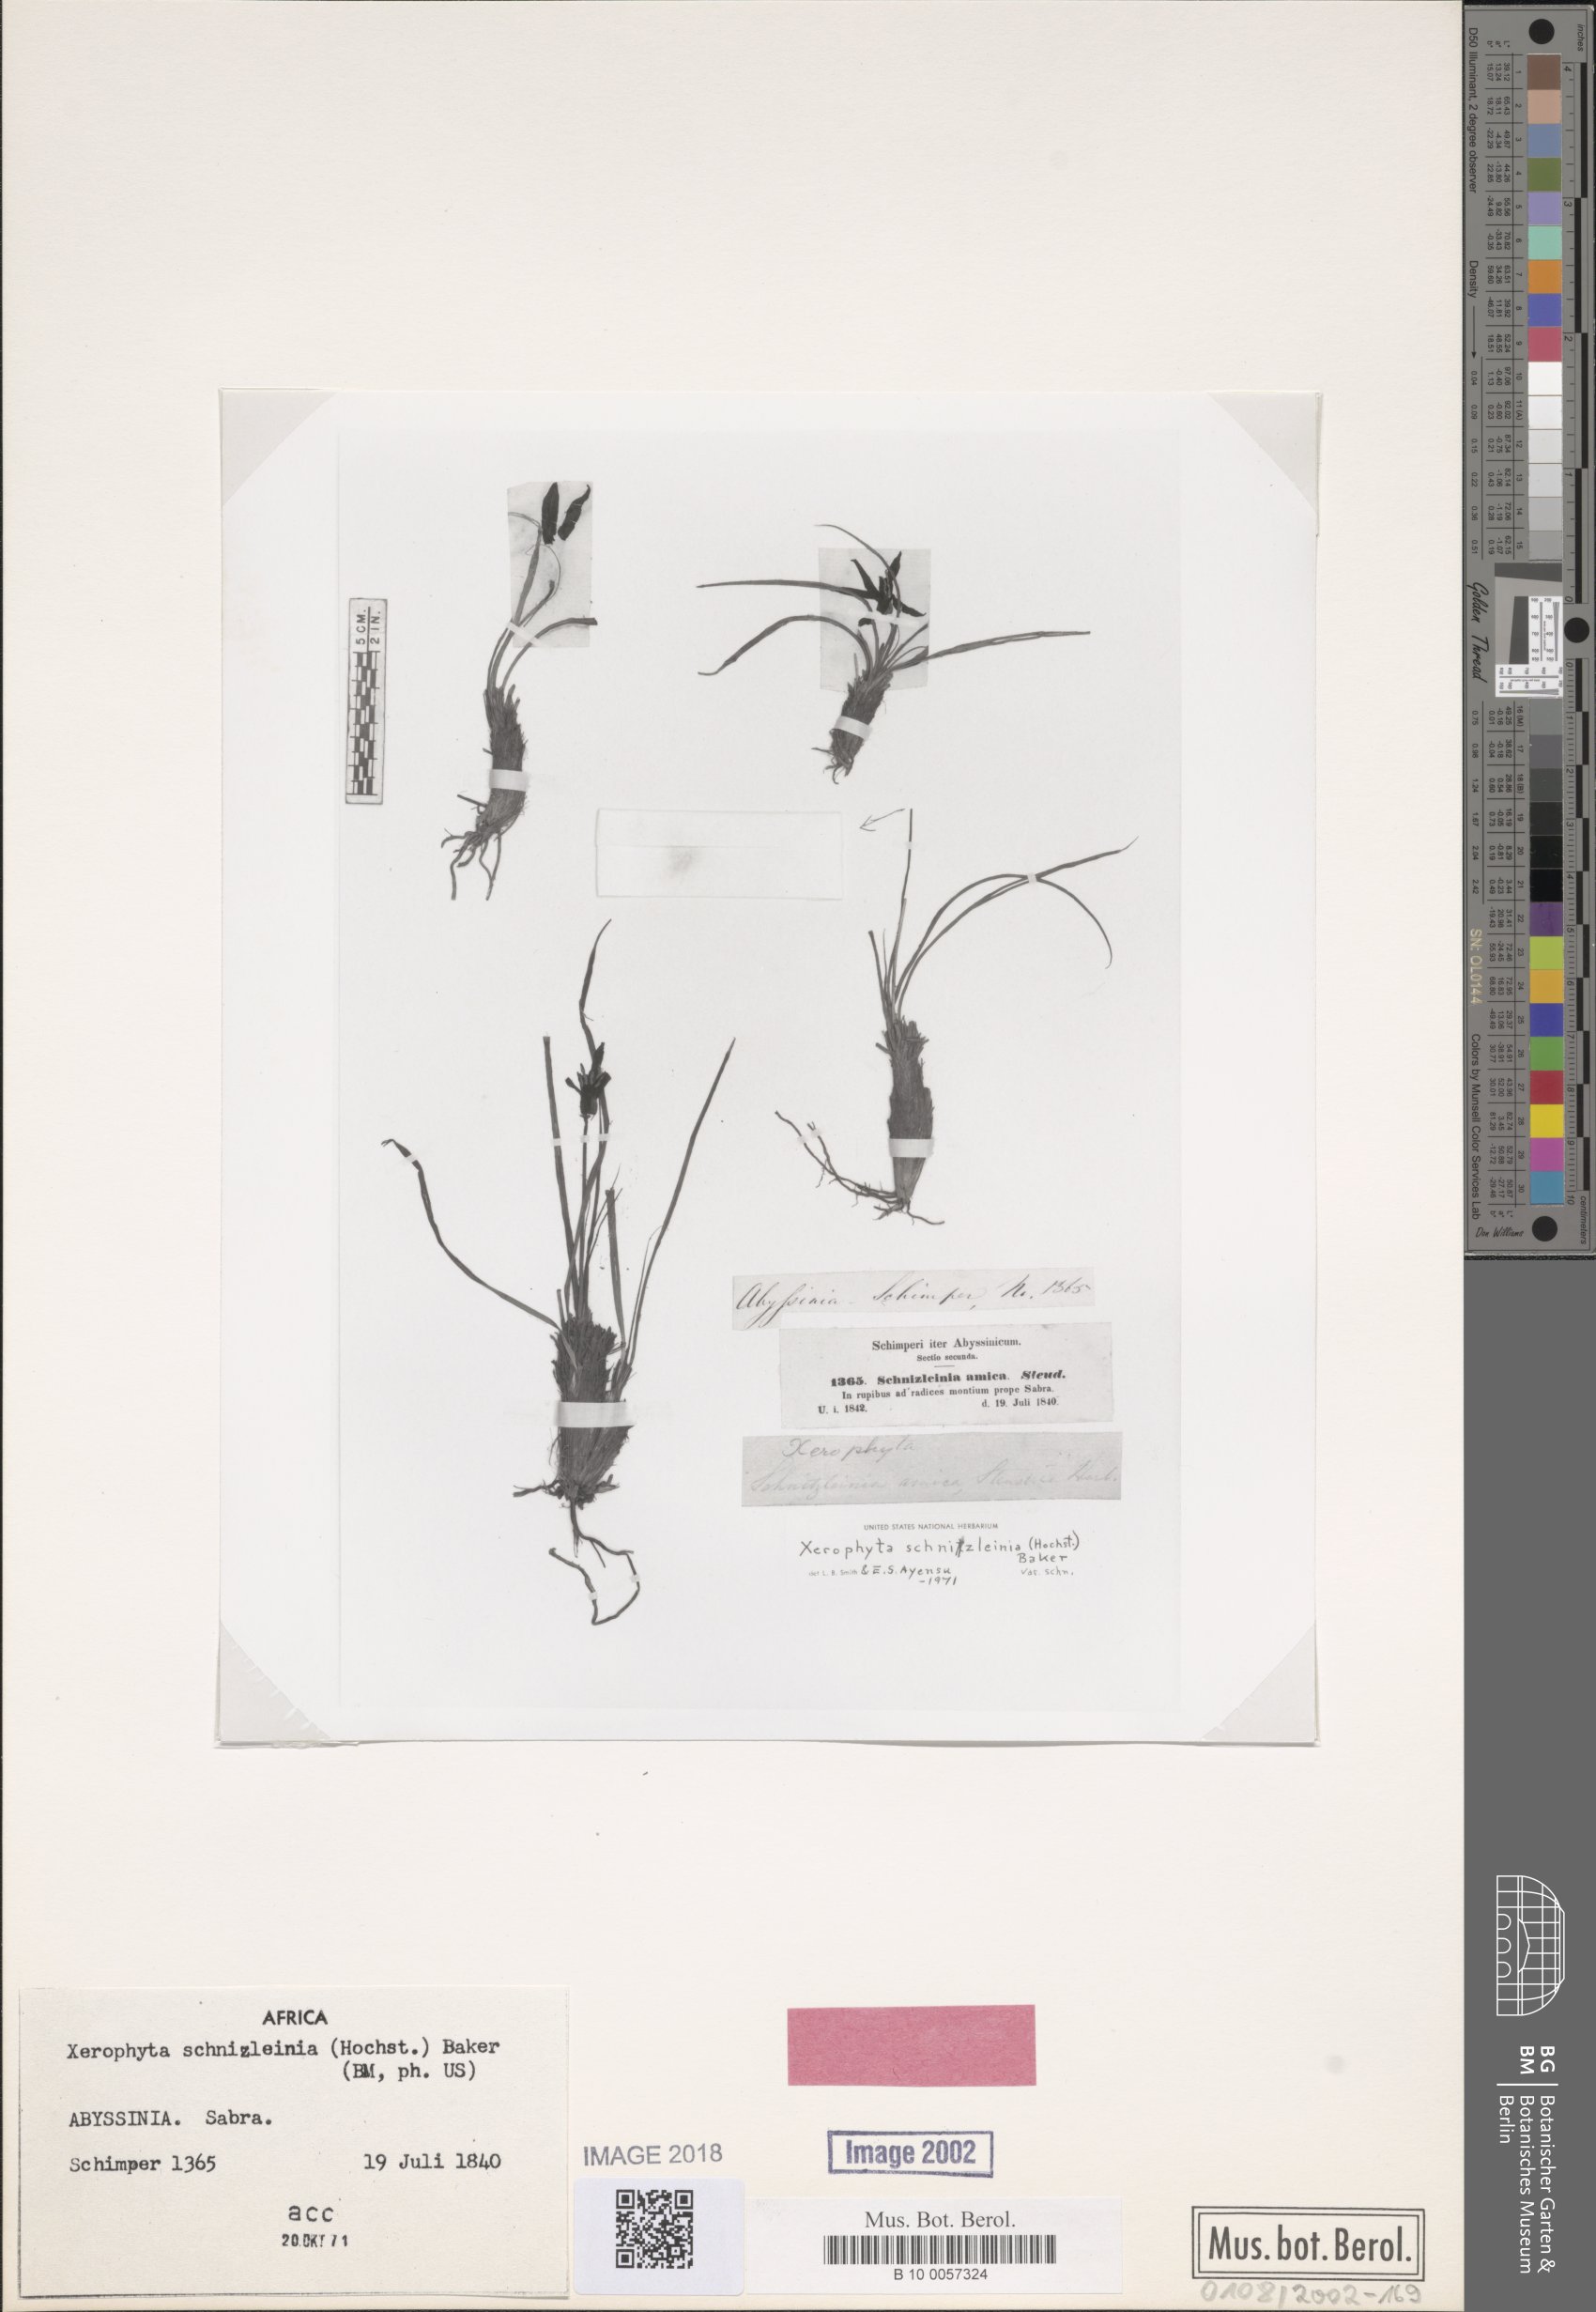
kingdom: Plantae
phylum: Tracheophyta
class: Liliopsida
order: Pandanales
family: Velloziaceae
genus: Xerophyta
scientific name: Xerophyta schnizleinia
